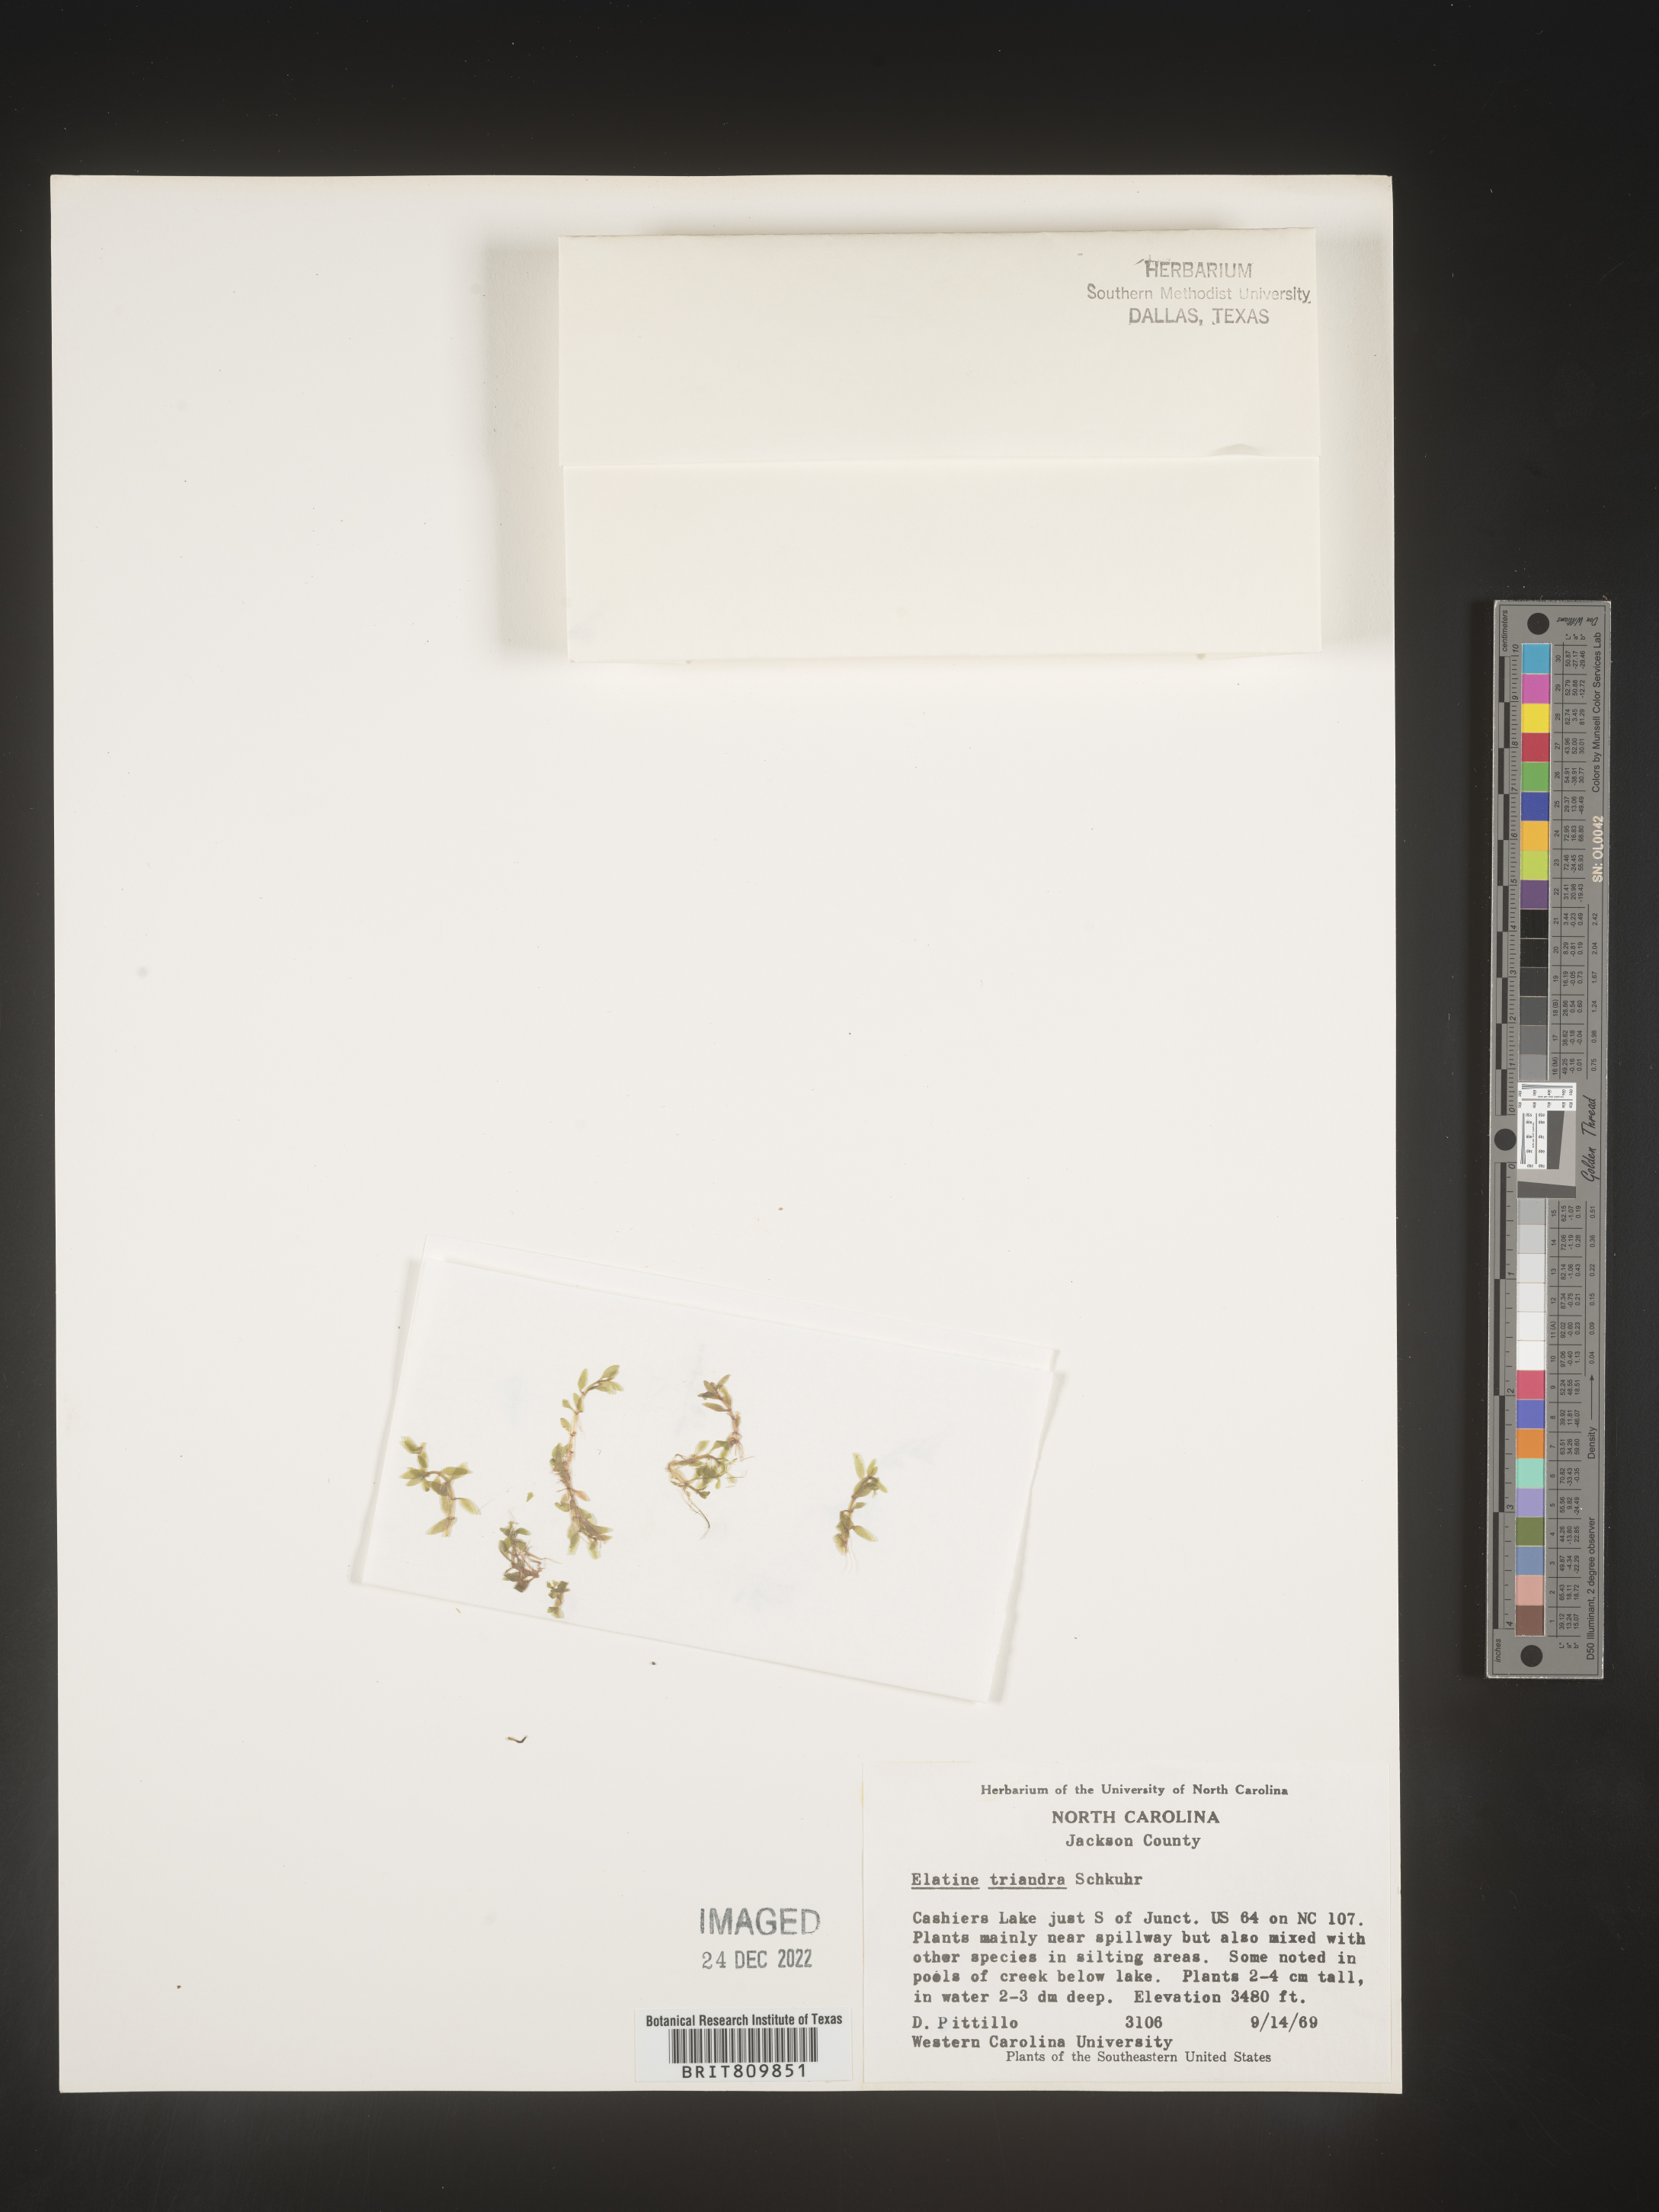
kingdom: Plantae
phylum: Tracheophyta
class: Magnoliopsida
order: Malpighiales
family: Elatinaceae
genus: Elatine
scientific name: Elatine
